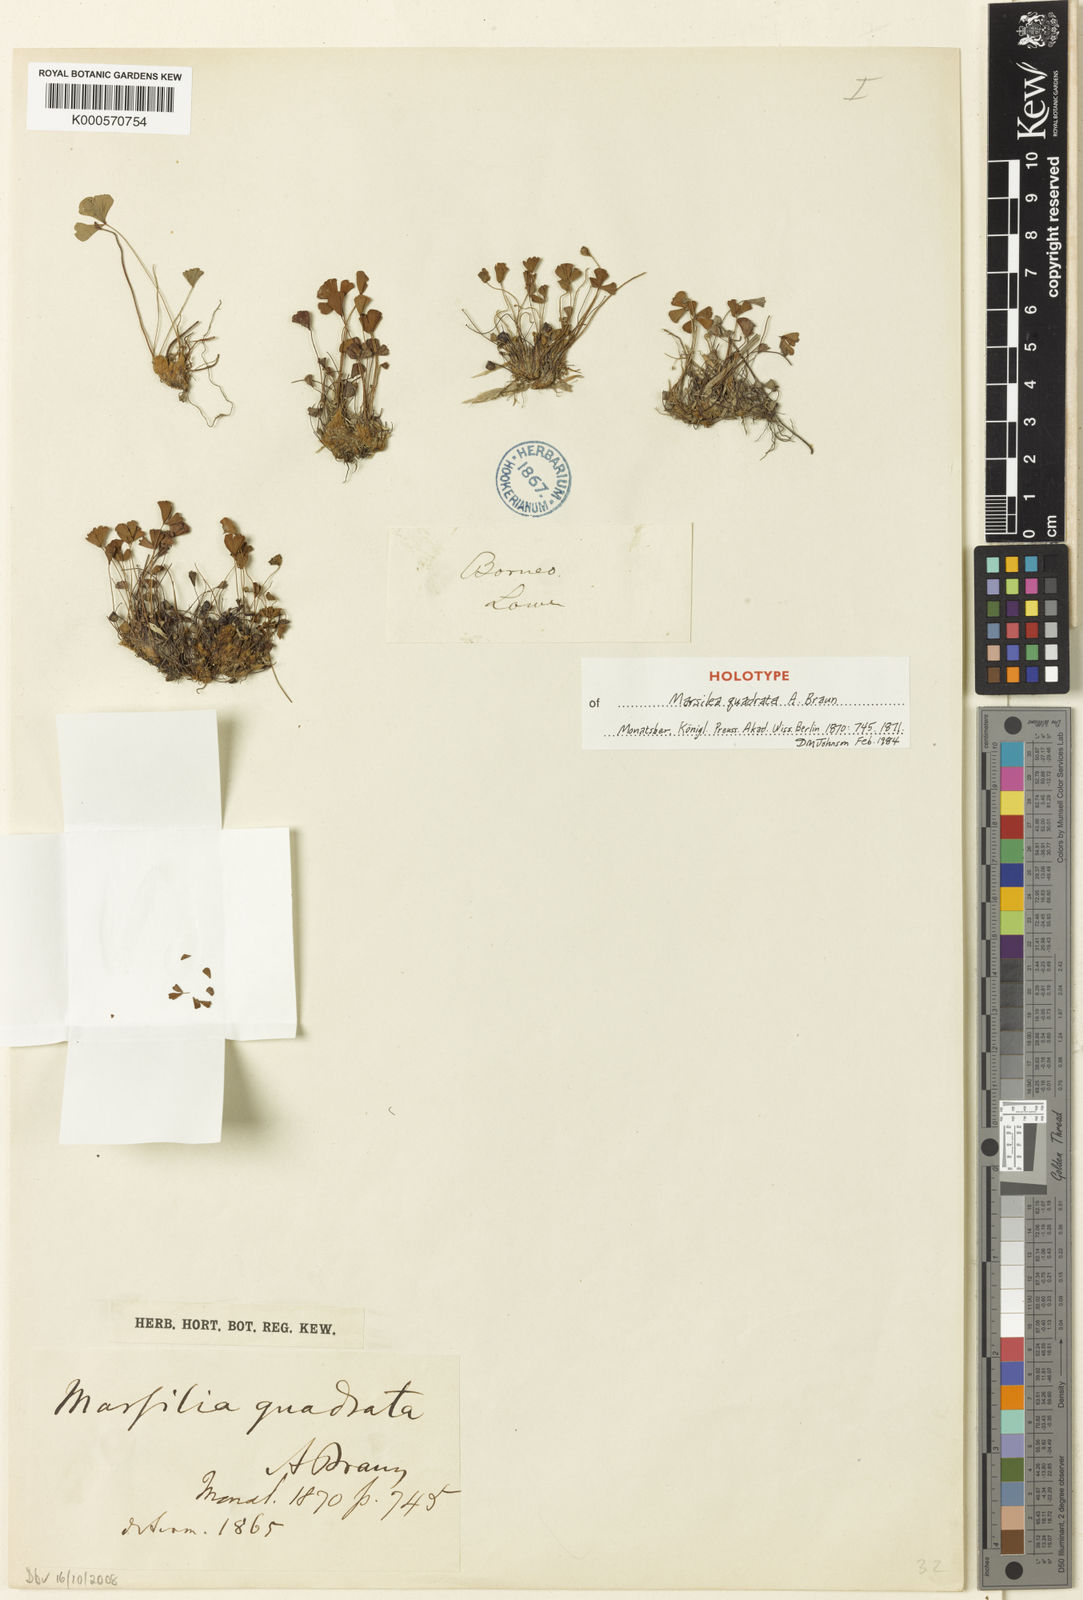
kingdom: Plantae
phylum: Tracheophyta
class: Polypodiopsida
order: Salviniales
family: Marsileaceae
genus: Marsilea
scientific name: Marsilea crenata
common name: False pepperwort
